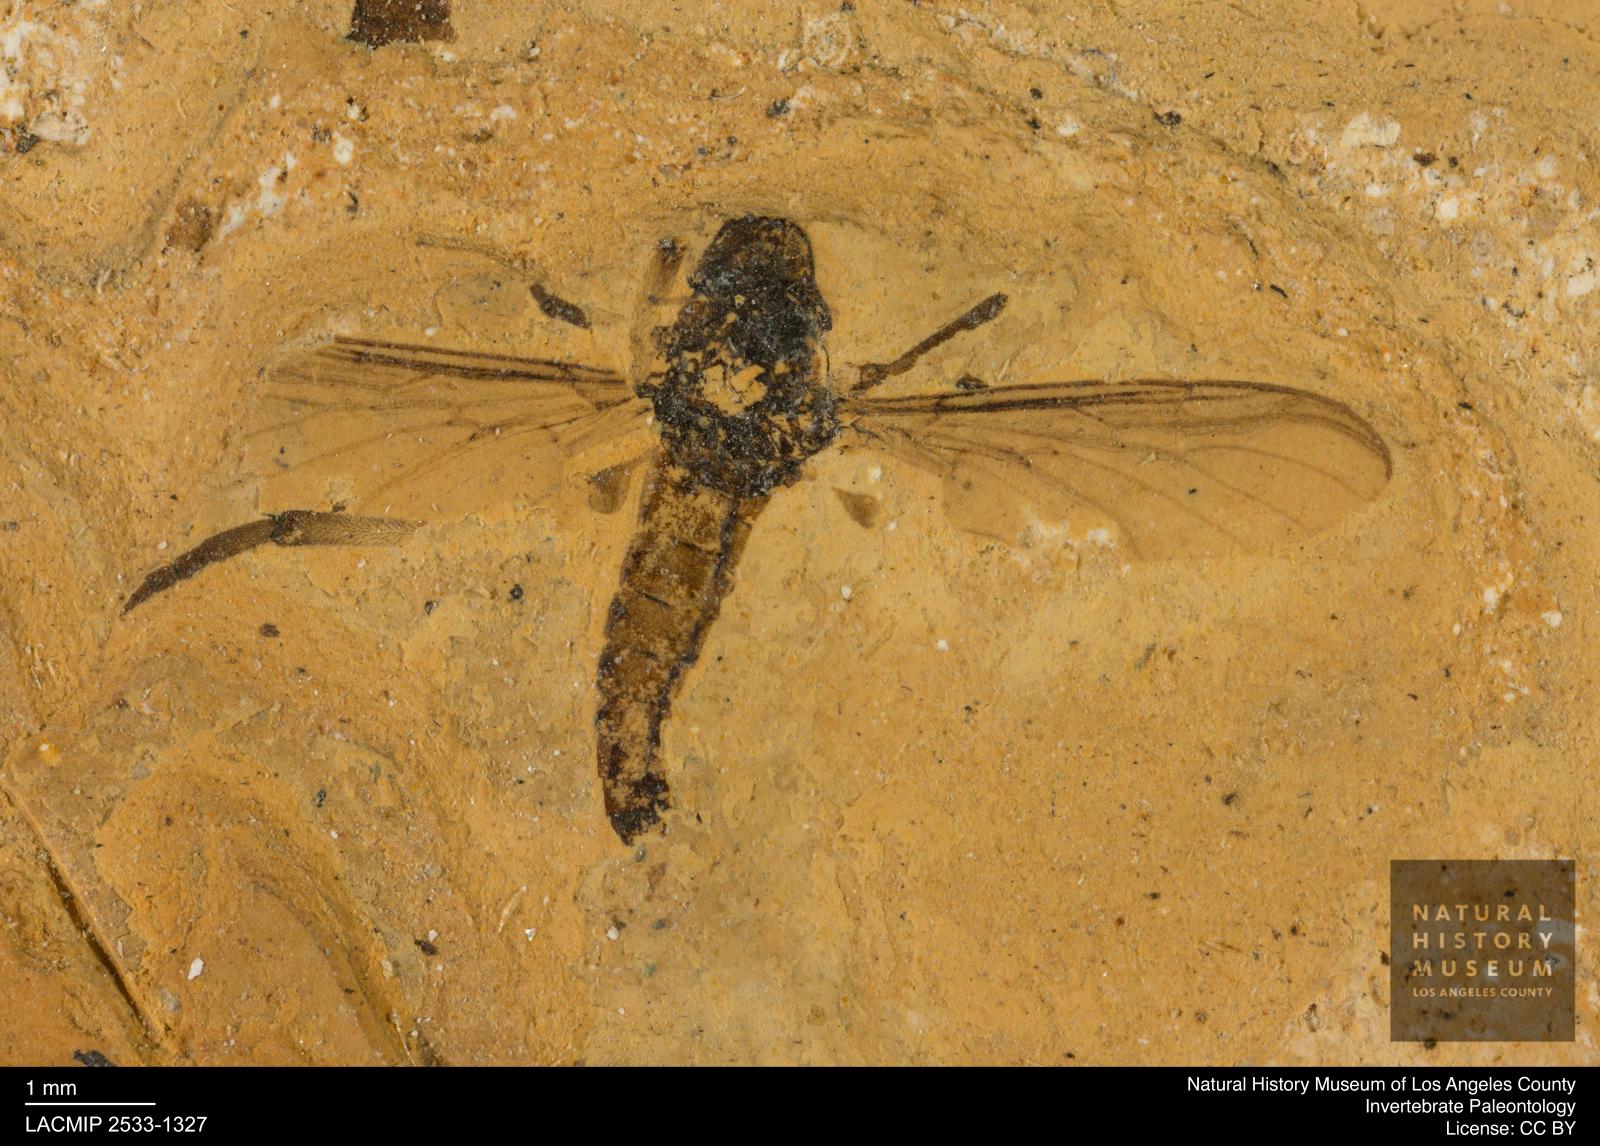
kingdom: Animalia
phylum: Arthropoda
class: Insecta
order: Diptera
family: Bibionidae
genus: Plecia
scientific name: Plecia
